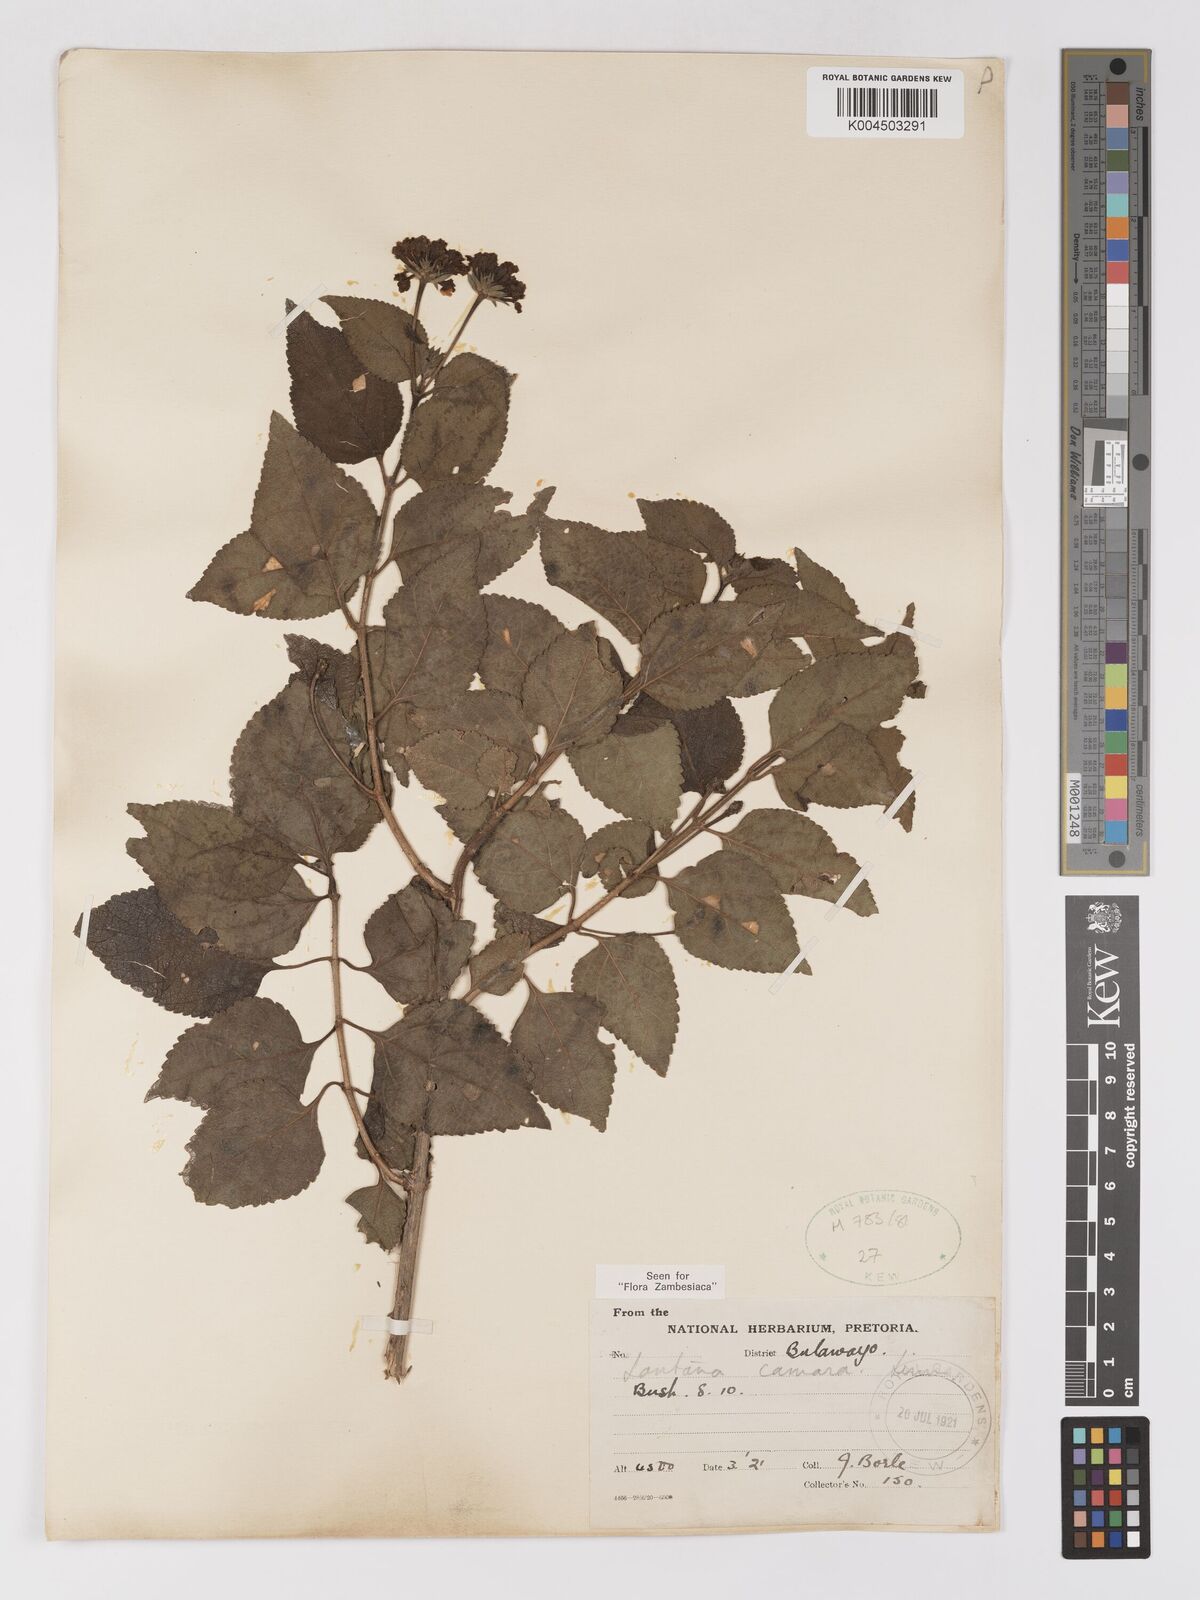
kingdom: Plantae
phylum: Tracheophyta
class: Magnoliopsida
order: Lamiales
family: Verbenaceae
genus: Lantana
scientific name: Lantana camara
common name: Lantana
